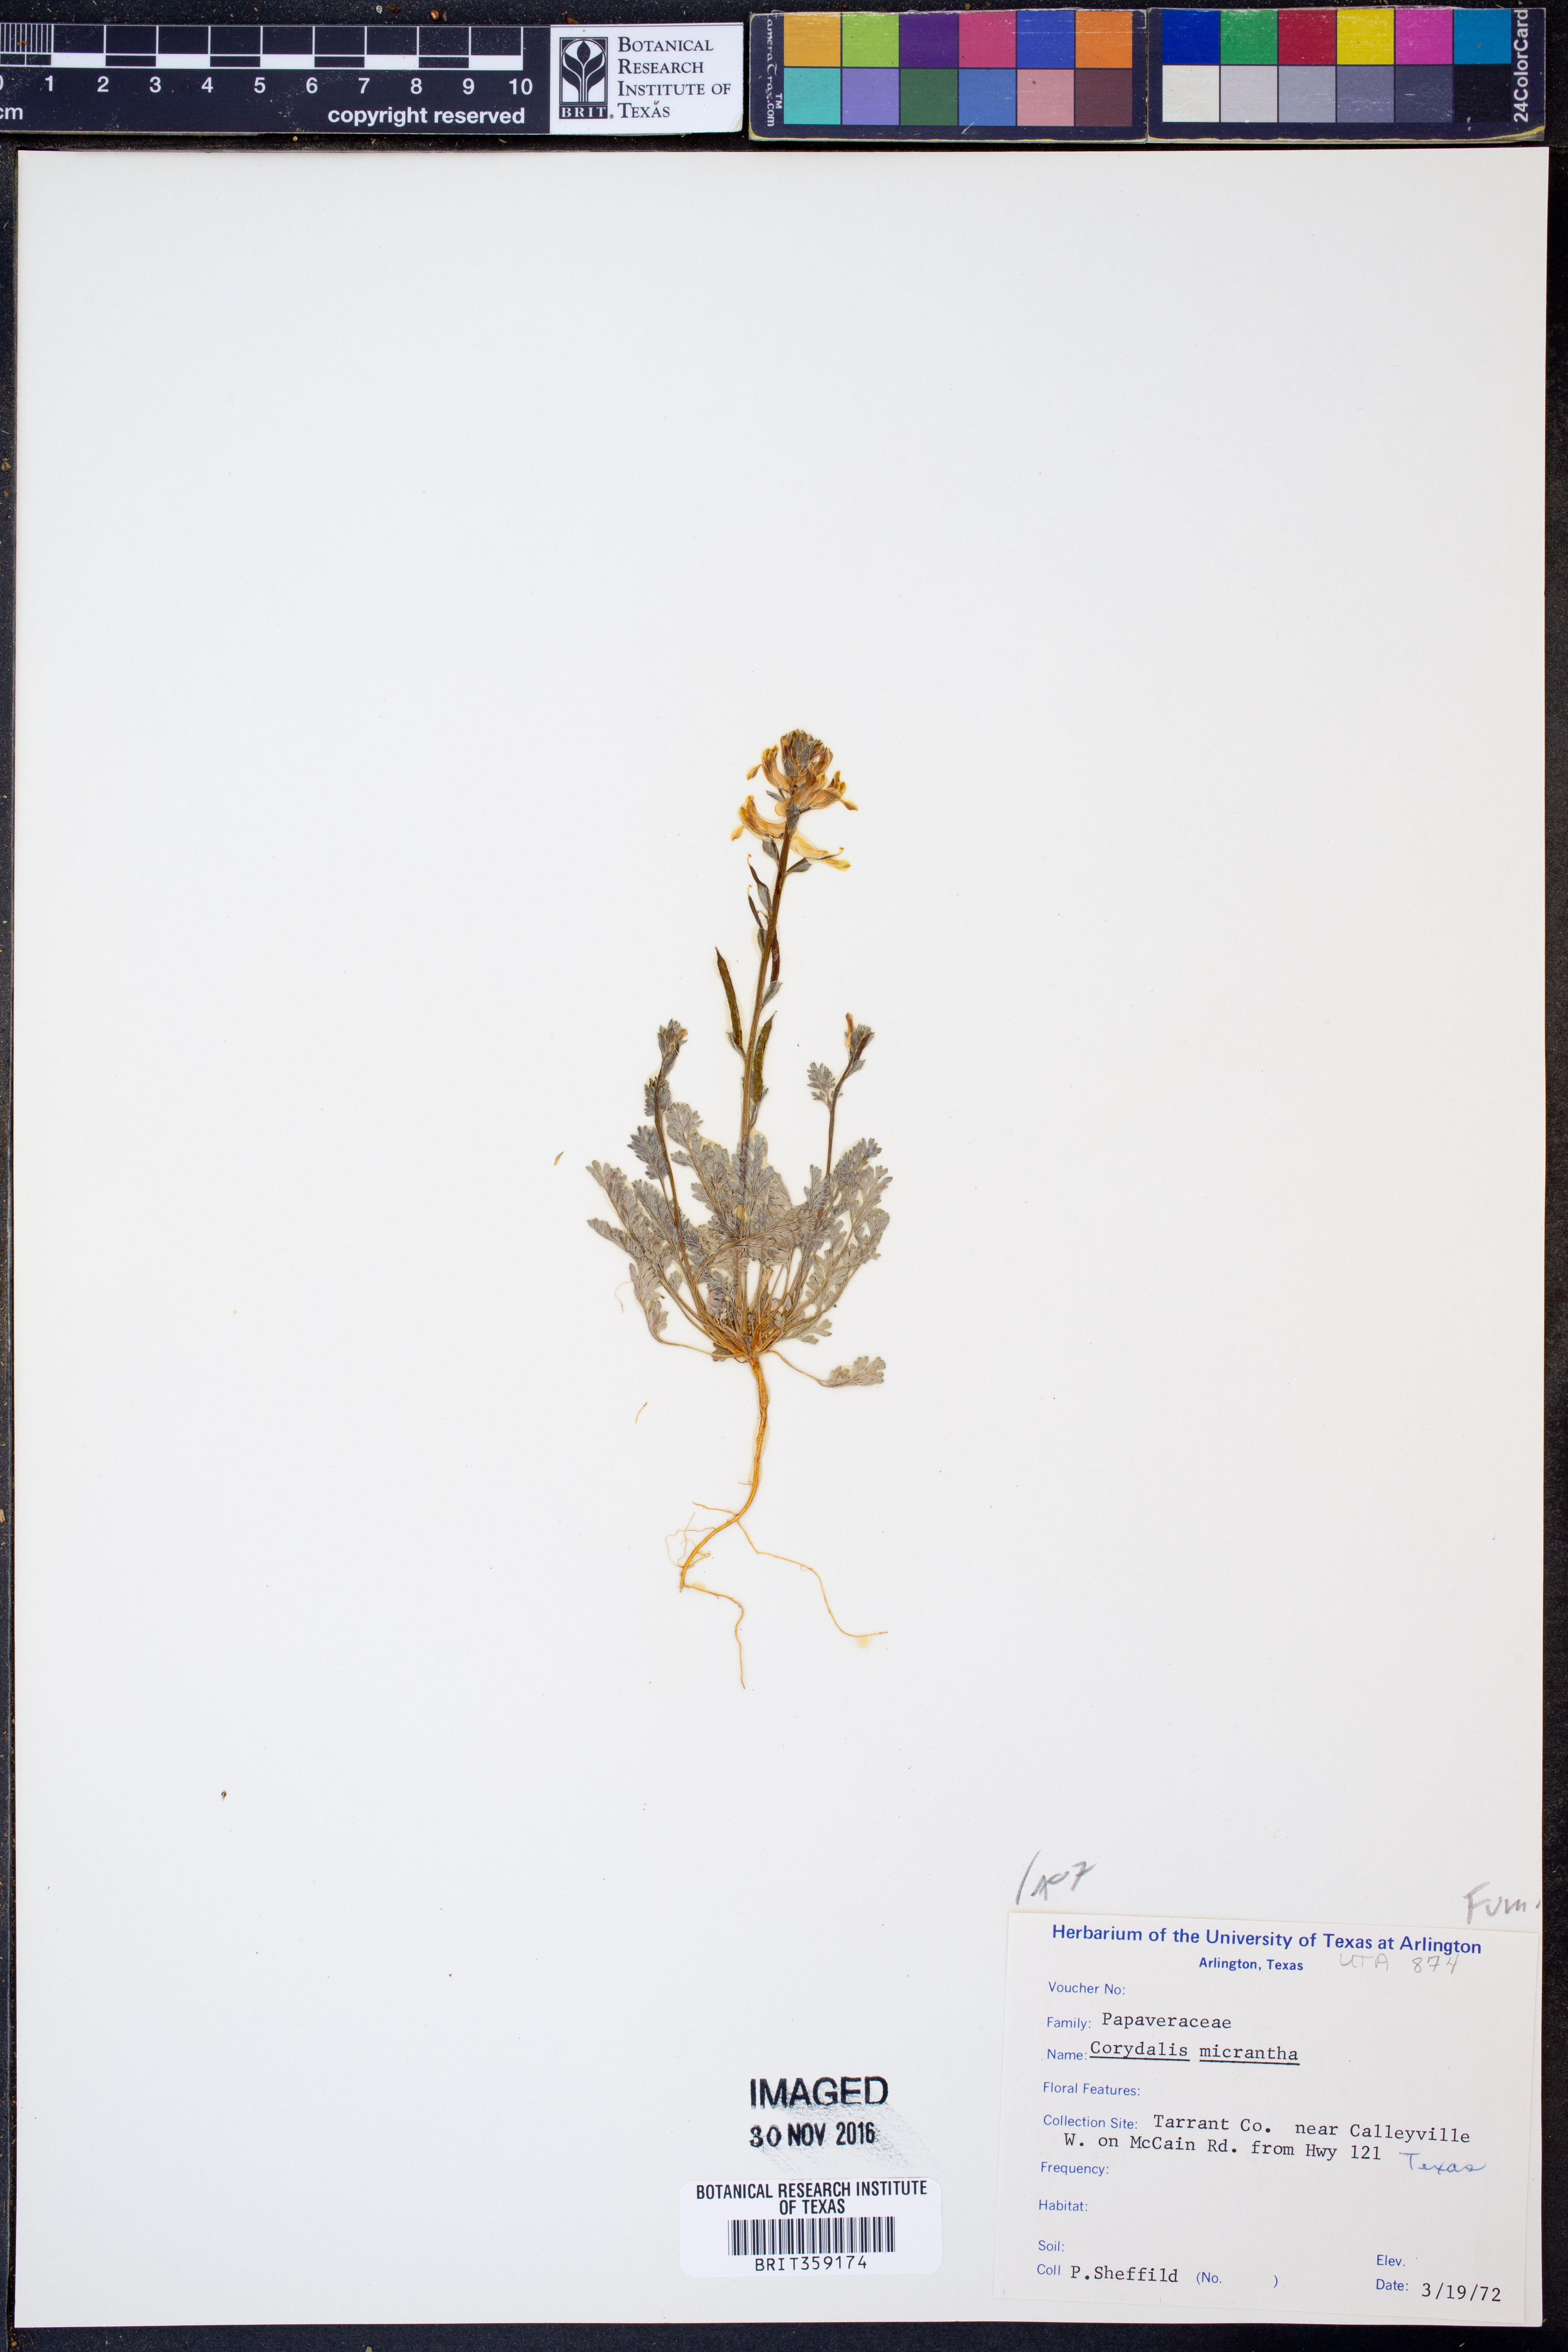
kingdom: Plantae
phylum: Tracheophyta
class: Magnoliopsida
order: Ranunculales
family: Papaveraceae
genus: Corydalis
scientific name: Corydalis micrantha
